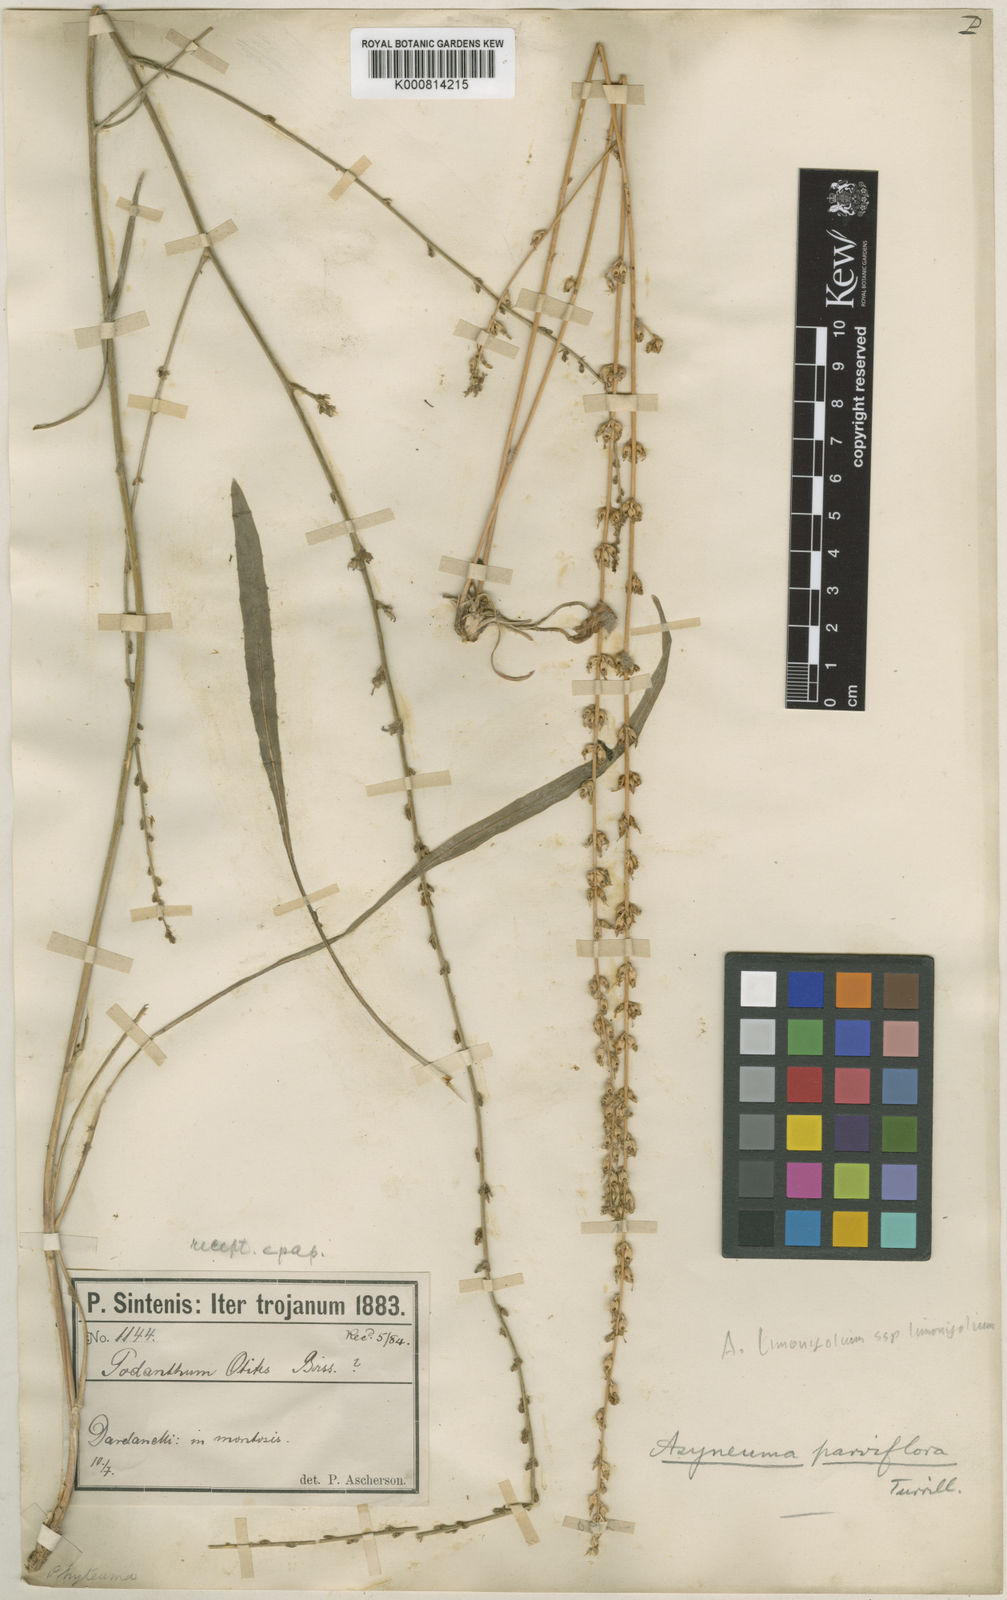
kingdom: Plantae
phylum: Tracheophyta
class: Magnoliopsida
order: Asterales
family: Campanulaceae
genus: Asyneuma
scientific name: Asyneuma limonifolium
